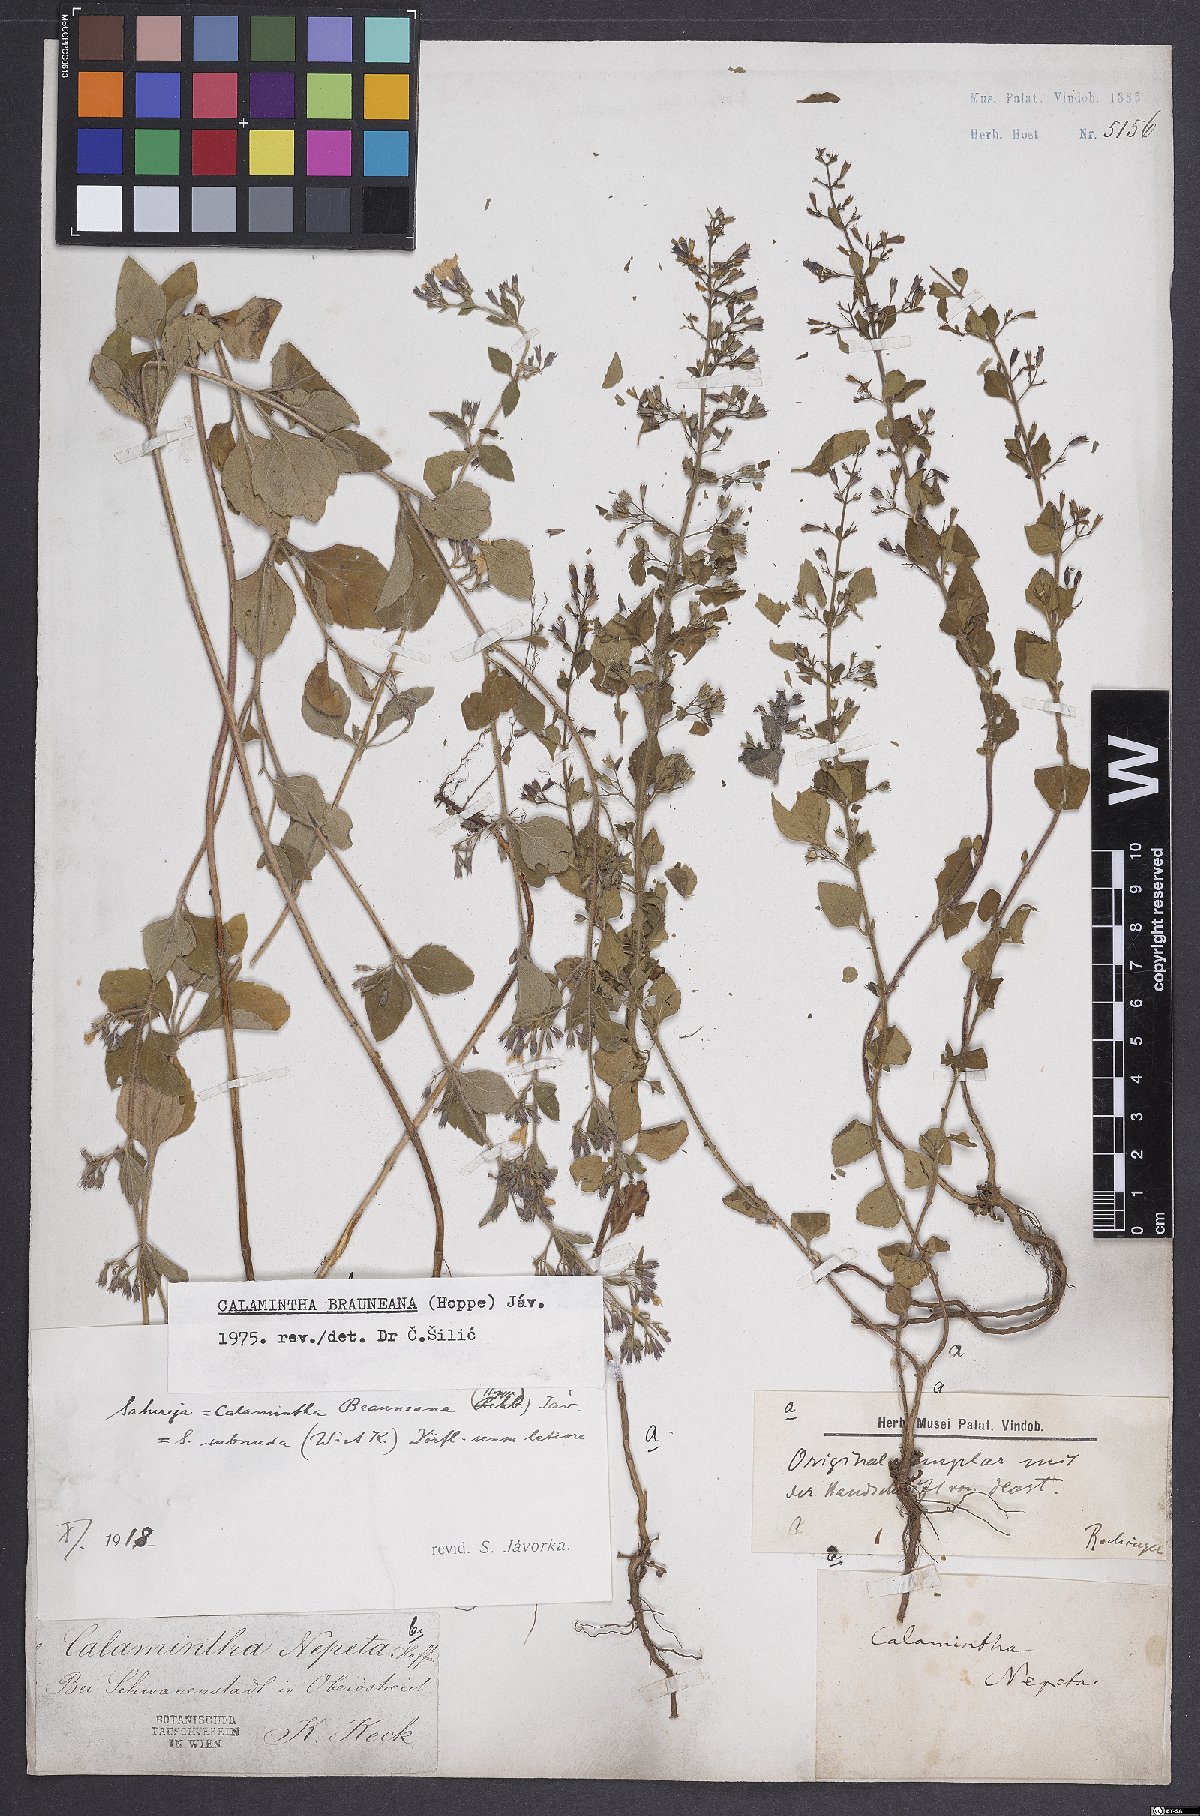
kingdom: Plantae
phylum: Tracheophyta
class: Magnoliopsida
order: Lamiales
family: Lamiaceae
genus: Clinopodium
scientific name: Clinopodium nepeta
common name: Lesser calamint
